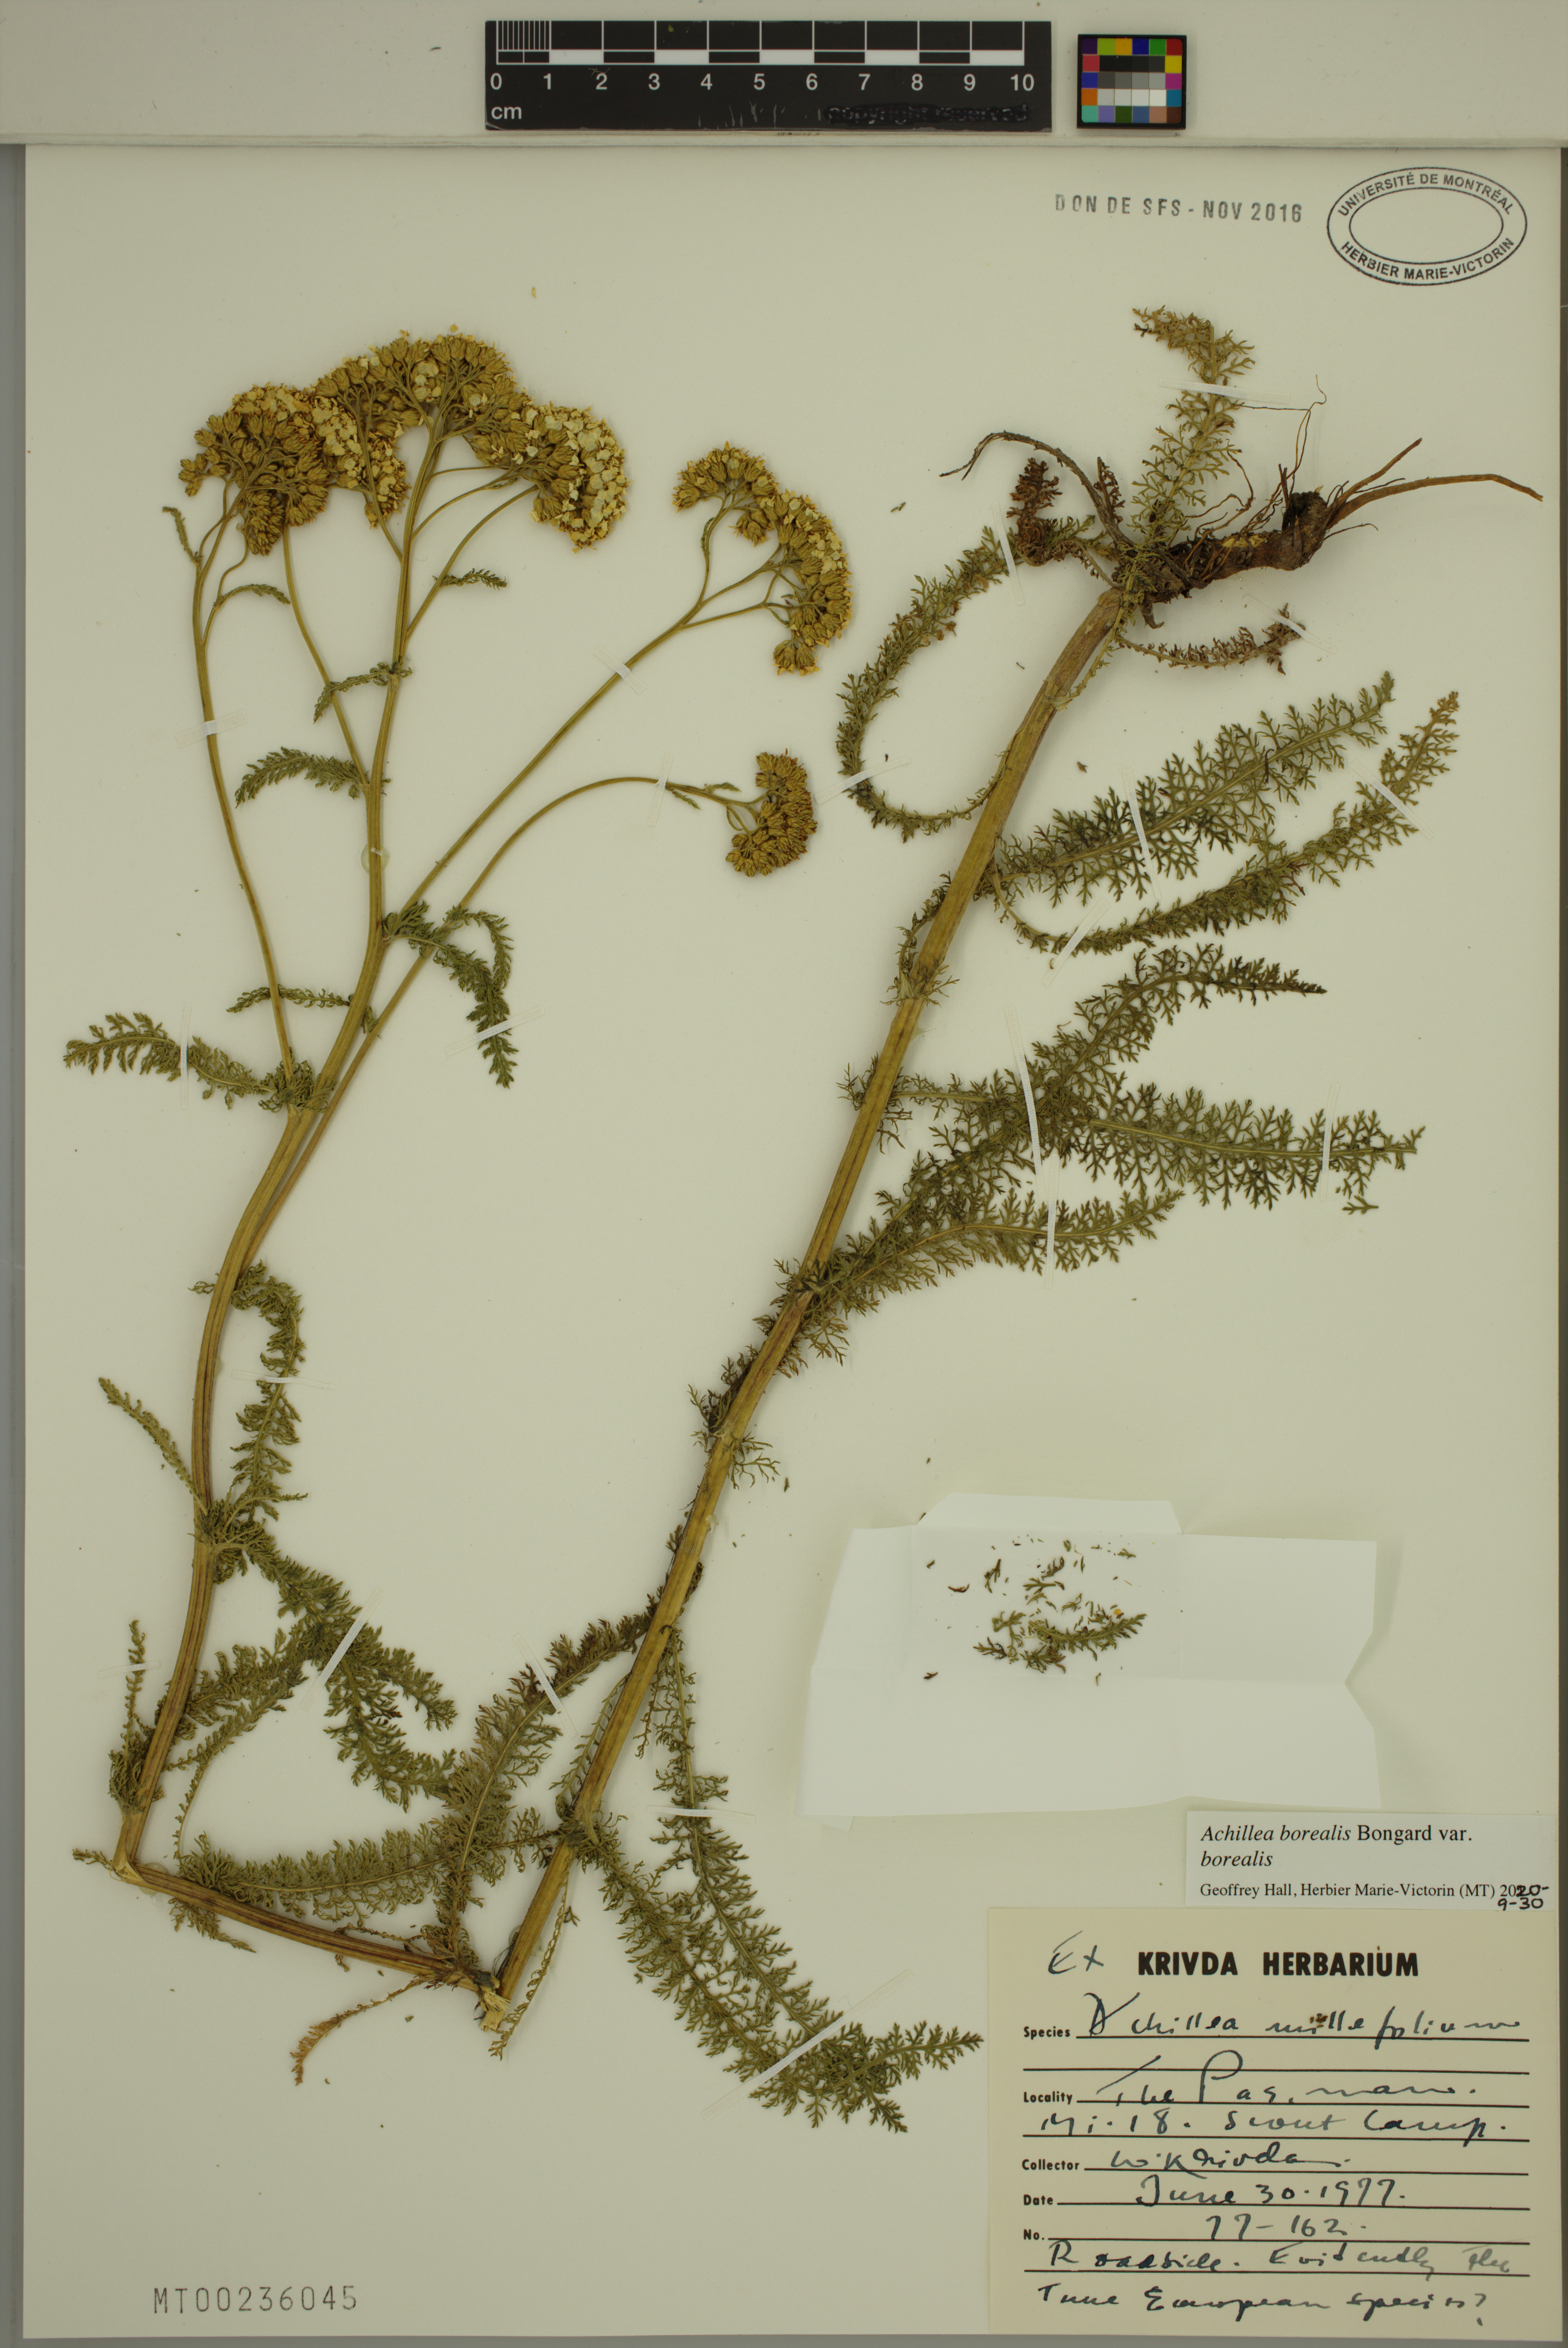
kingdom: Plantae
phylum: Tracheophyta
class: Magnoliopsida
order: Asterales
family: Asteraceae
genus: Achillea
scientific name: Achillea millefolium
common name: Yarrow
